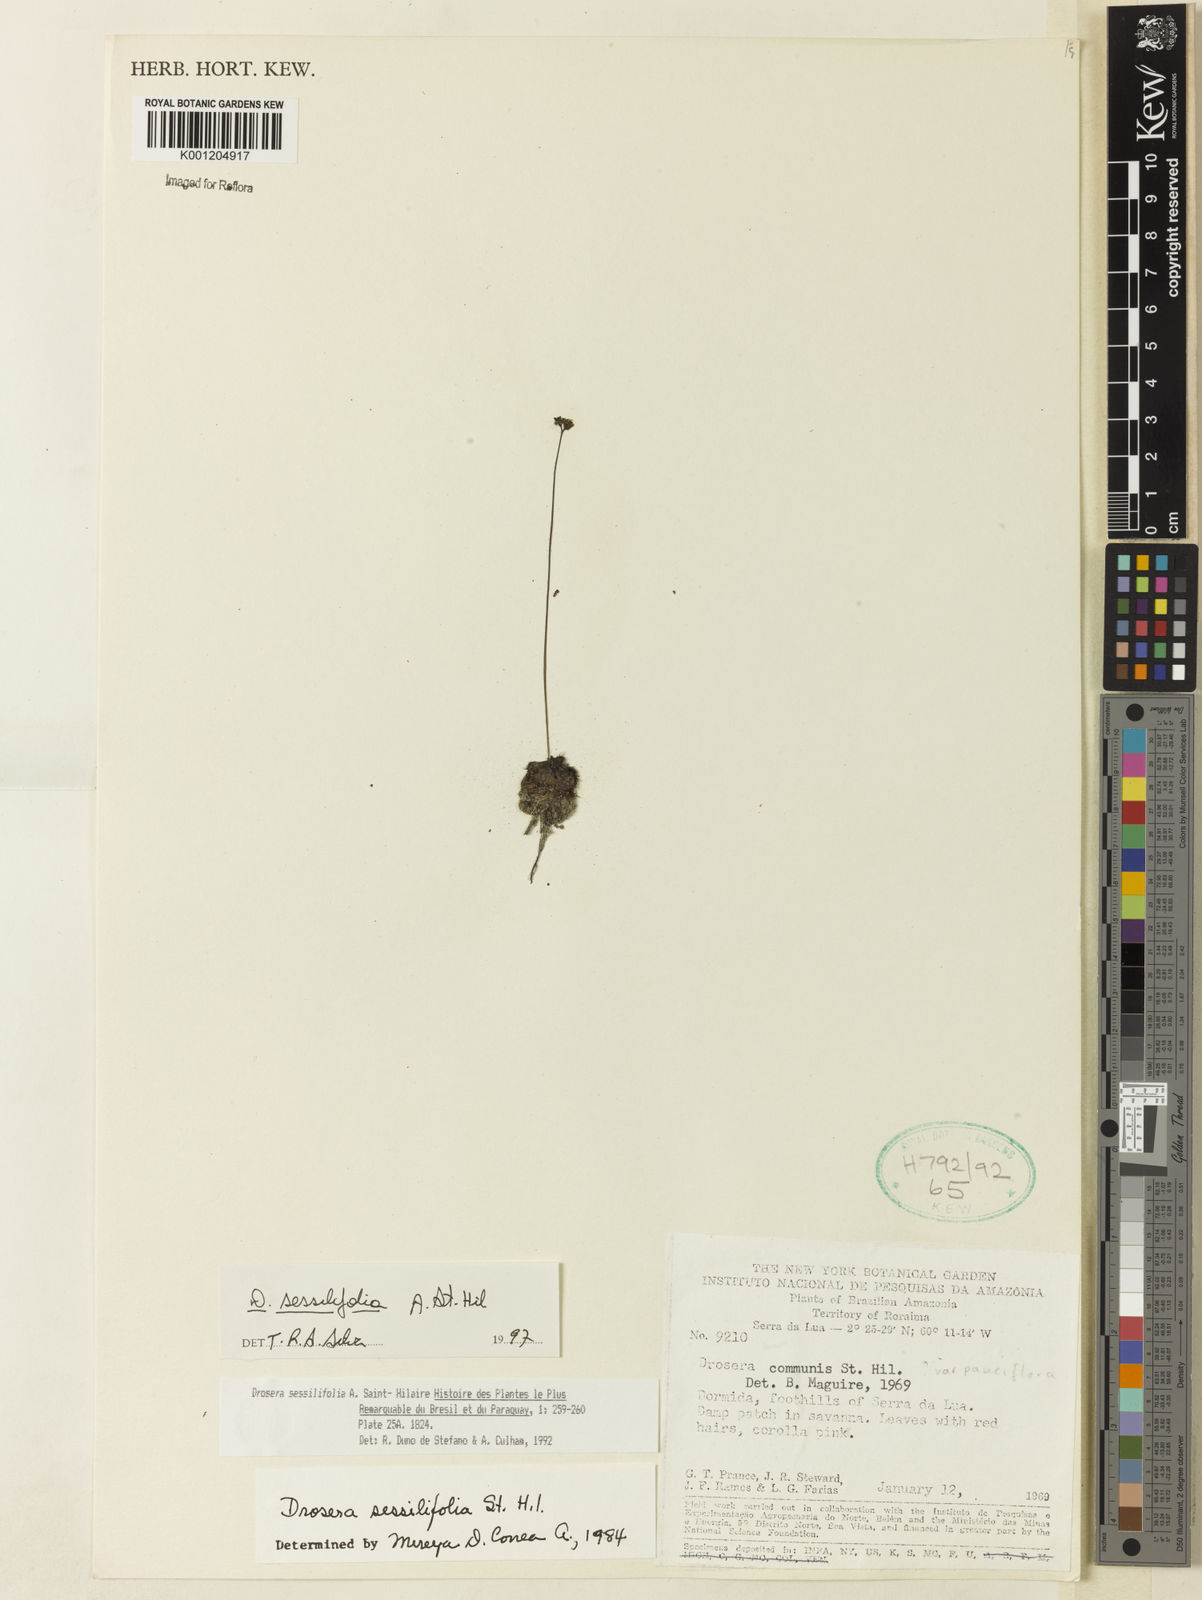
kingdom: Plantae
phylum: Tracheophyta
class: Magnoliopsida
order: Caryophyllales
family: Droseraceae
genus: Drosera
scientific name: Drosera sessilifolia
